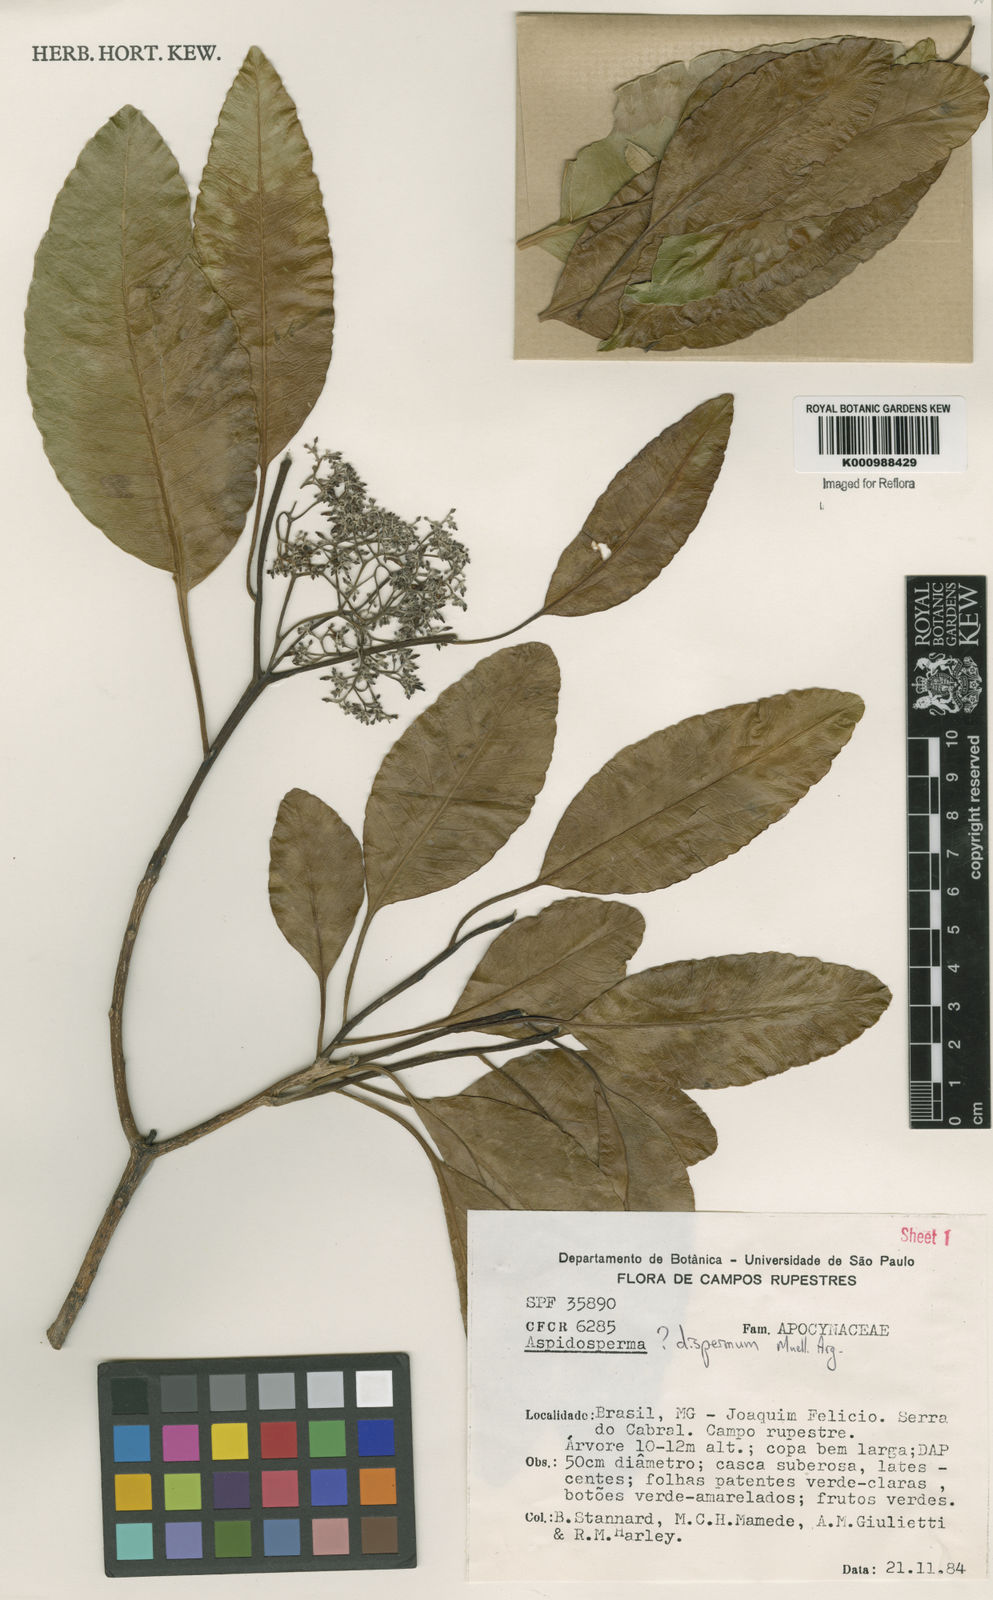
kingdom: Plantae
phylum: Tracheophyta
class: Magnoliopsida
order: Gentianales
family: Apocynaceae
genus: Aspidosperma
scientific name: Aspidosperma
